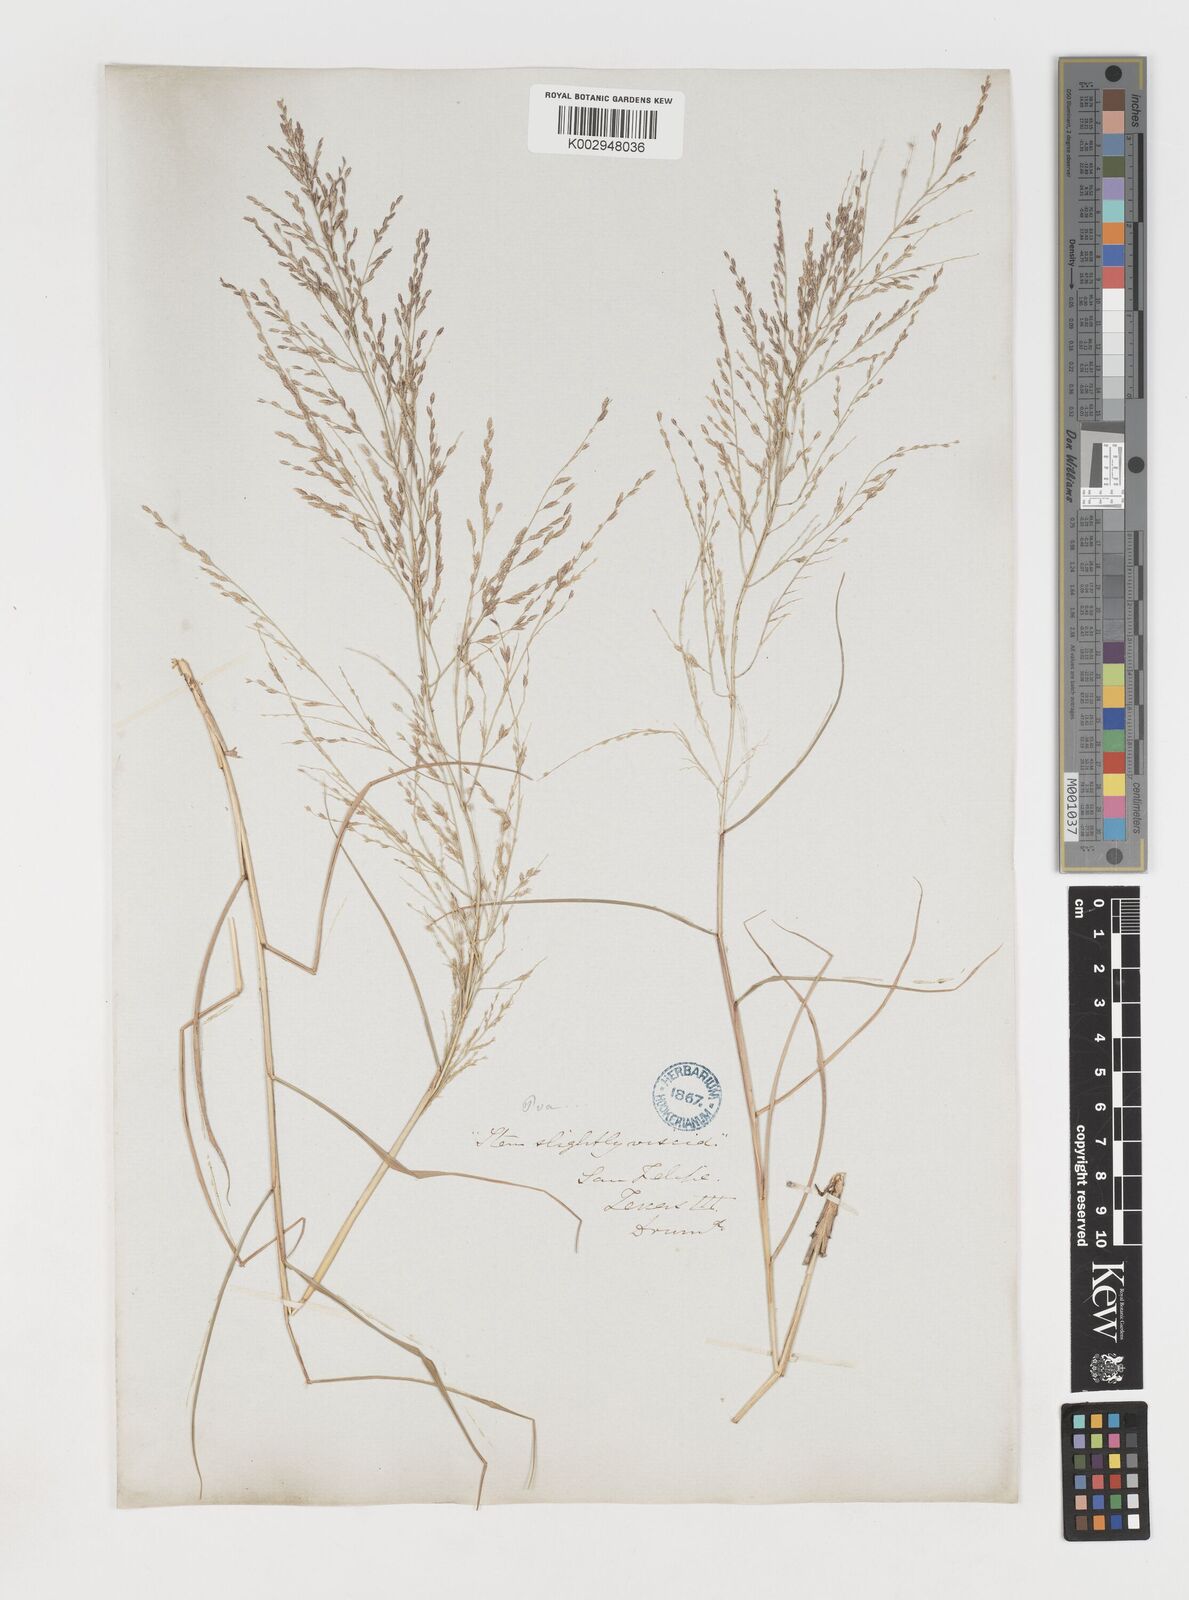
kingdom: Plantae
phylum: Tracheophyta
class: Liliopsida
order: Poales
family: Poaceae
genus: Eragrostis
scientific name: Eragrostis curtipedicellata
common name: Gummy love grass
